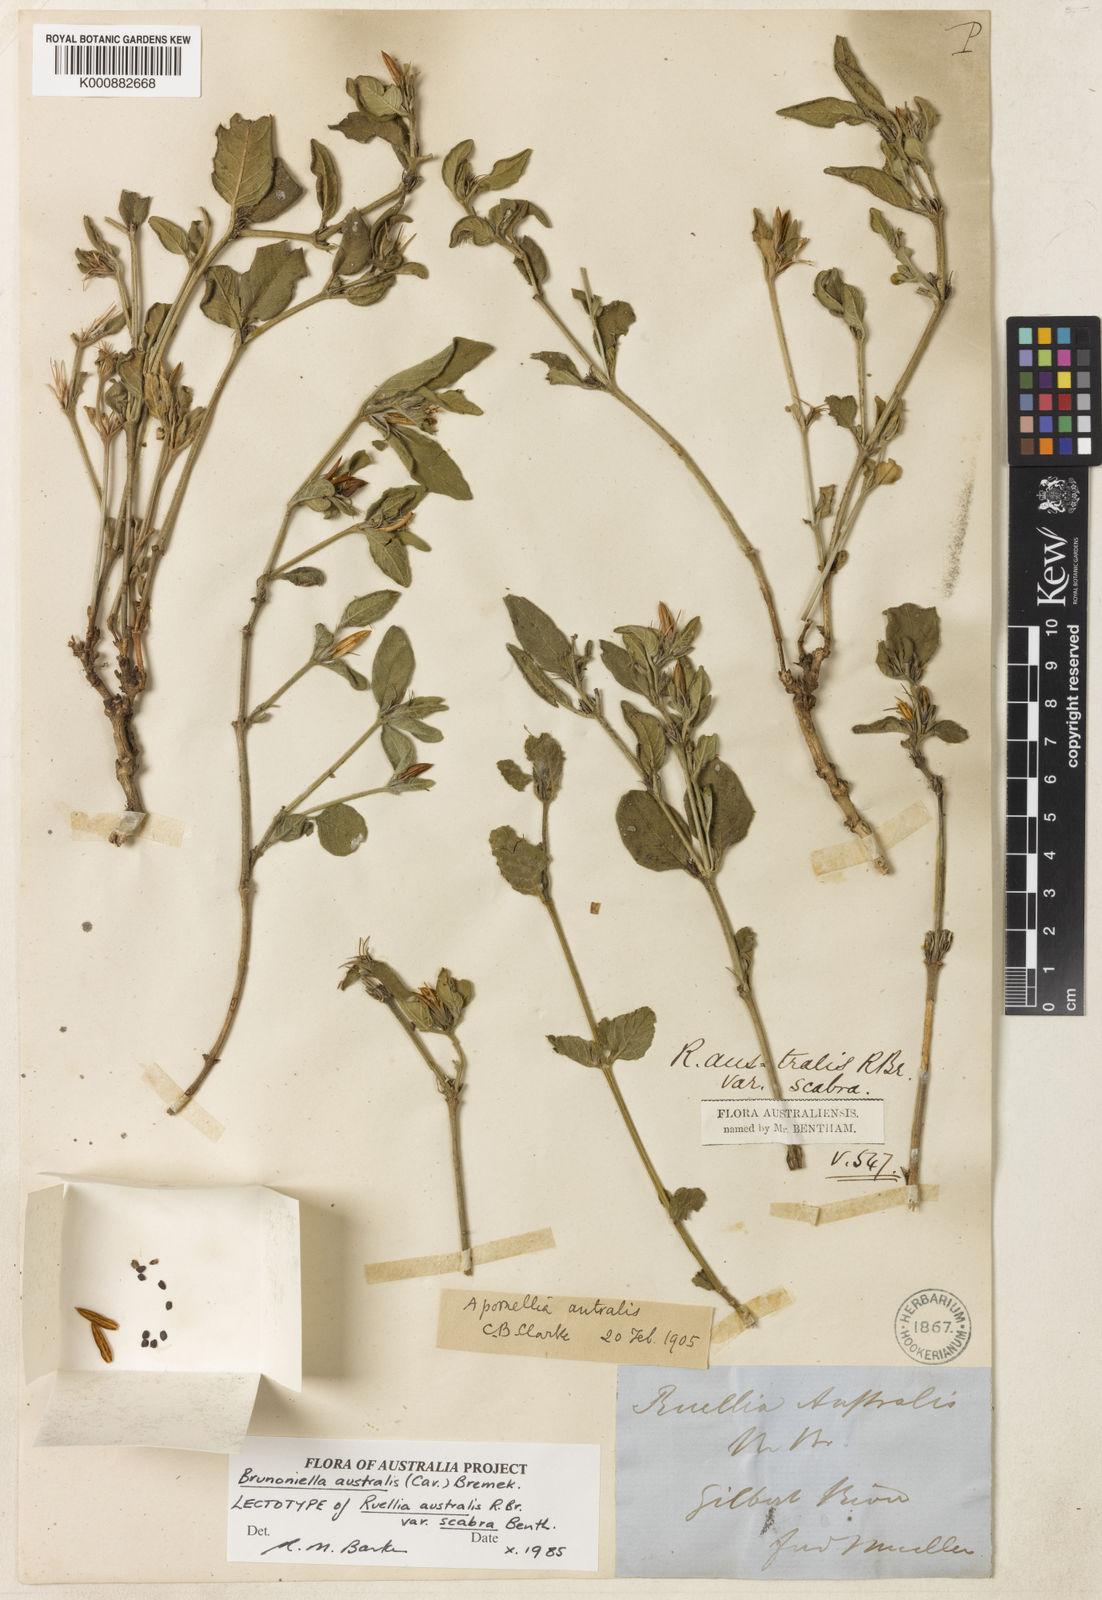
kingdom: Plantae
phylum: Tracheophyta
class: Magnoliopsida
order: Lamiales
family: Acanthaceae
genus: Brunoniella
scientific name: Brunoniella australis
